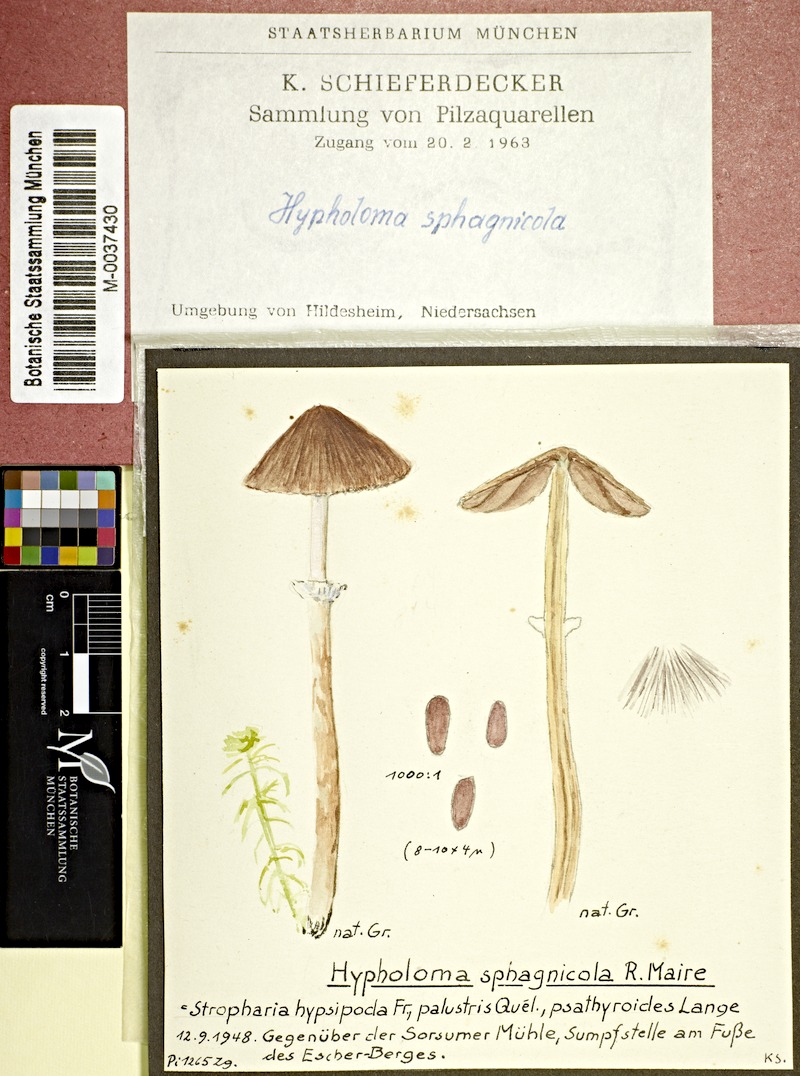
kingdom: Fungi
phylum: Basidiomycota
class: Agaricomycetes
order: Agaricales
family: Psathyrellaceae
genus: Psathyrella
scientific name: Psathyrella sphagnicola
